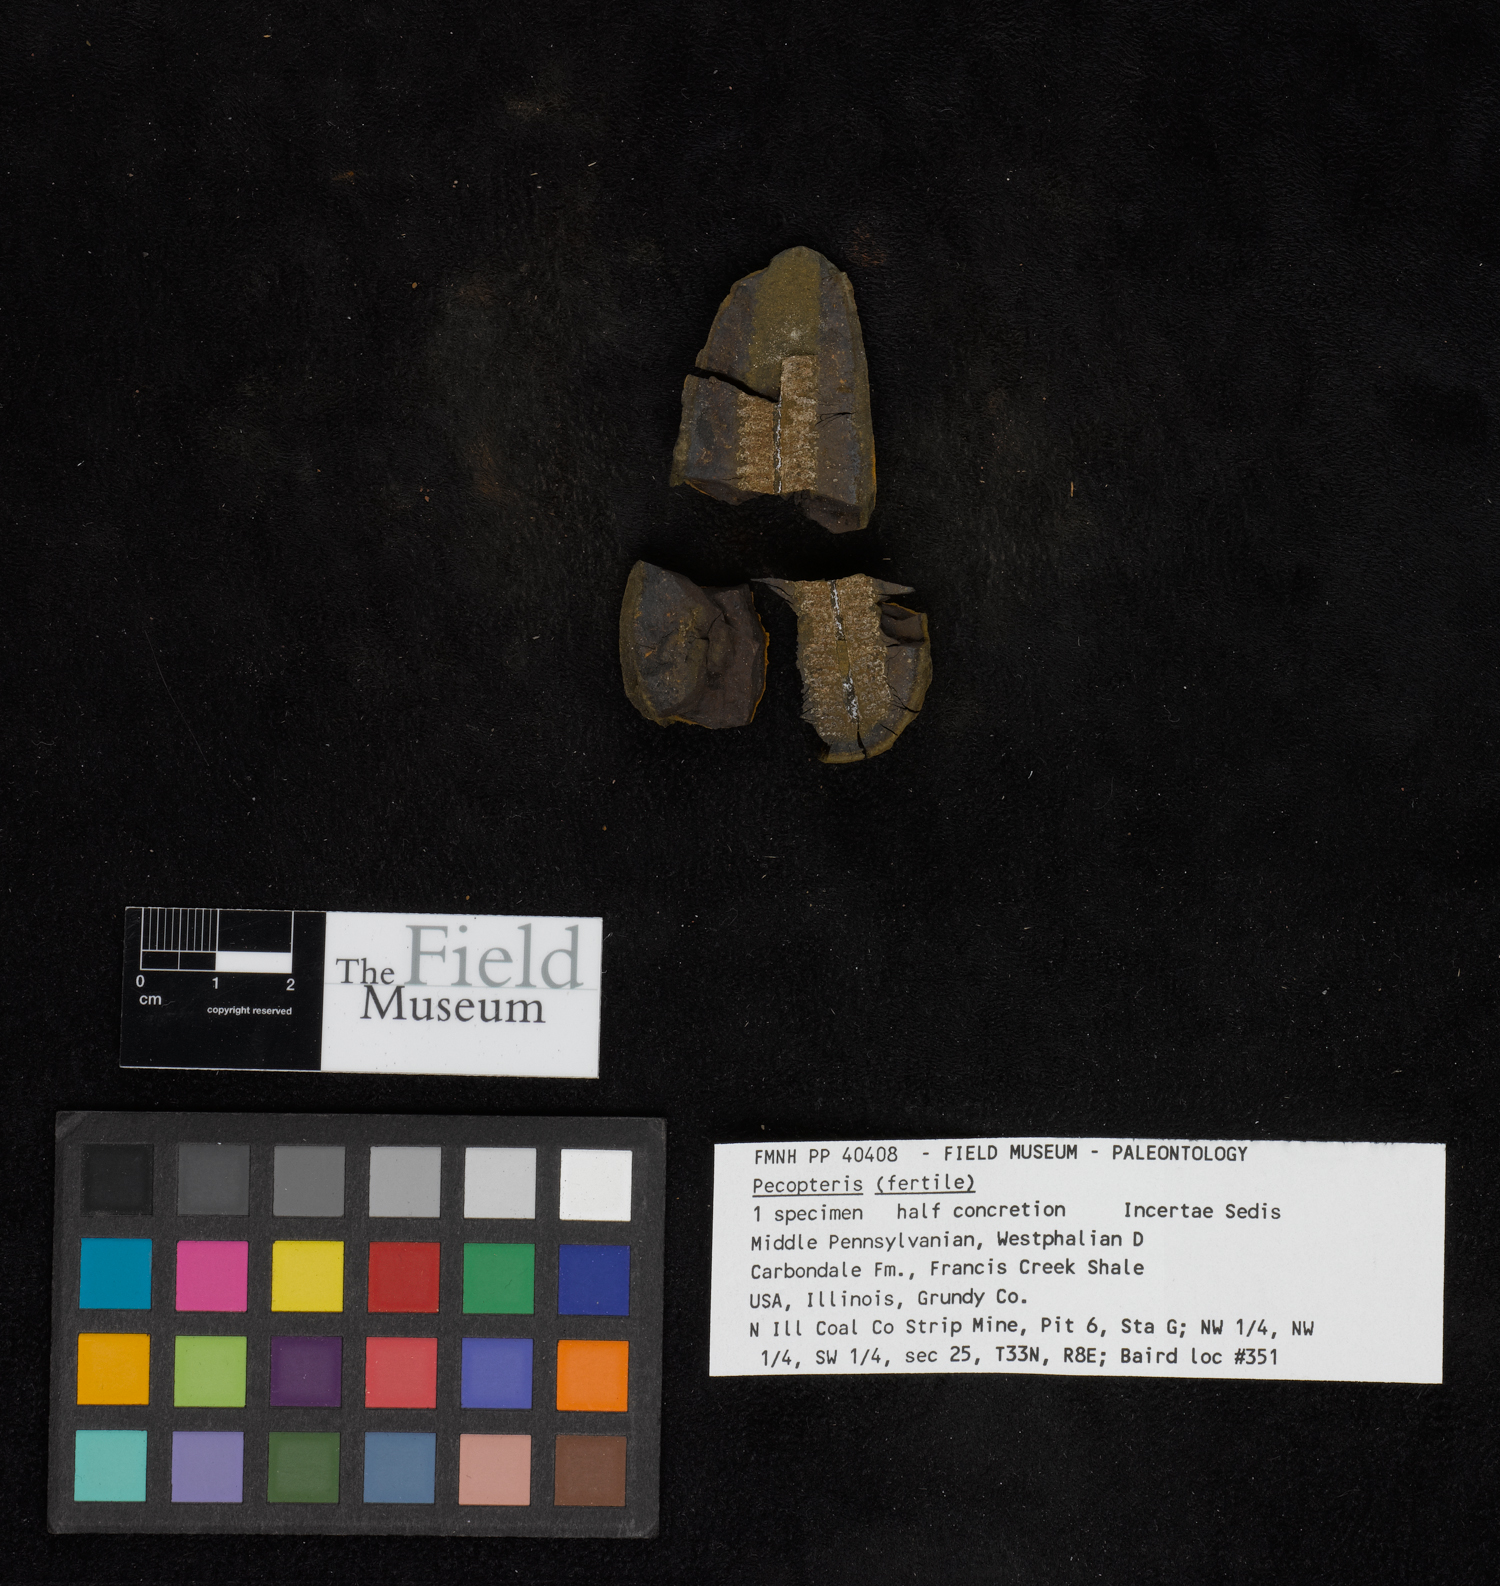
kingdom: Plantae
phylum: Tracheophyta
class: Polypodiopsida
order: Marattiales
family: Asterothecaceae
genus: Pecopteris
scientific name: Pecopteris
